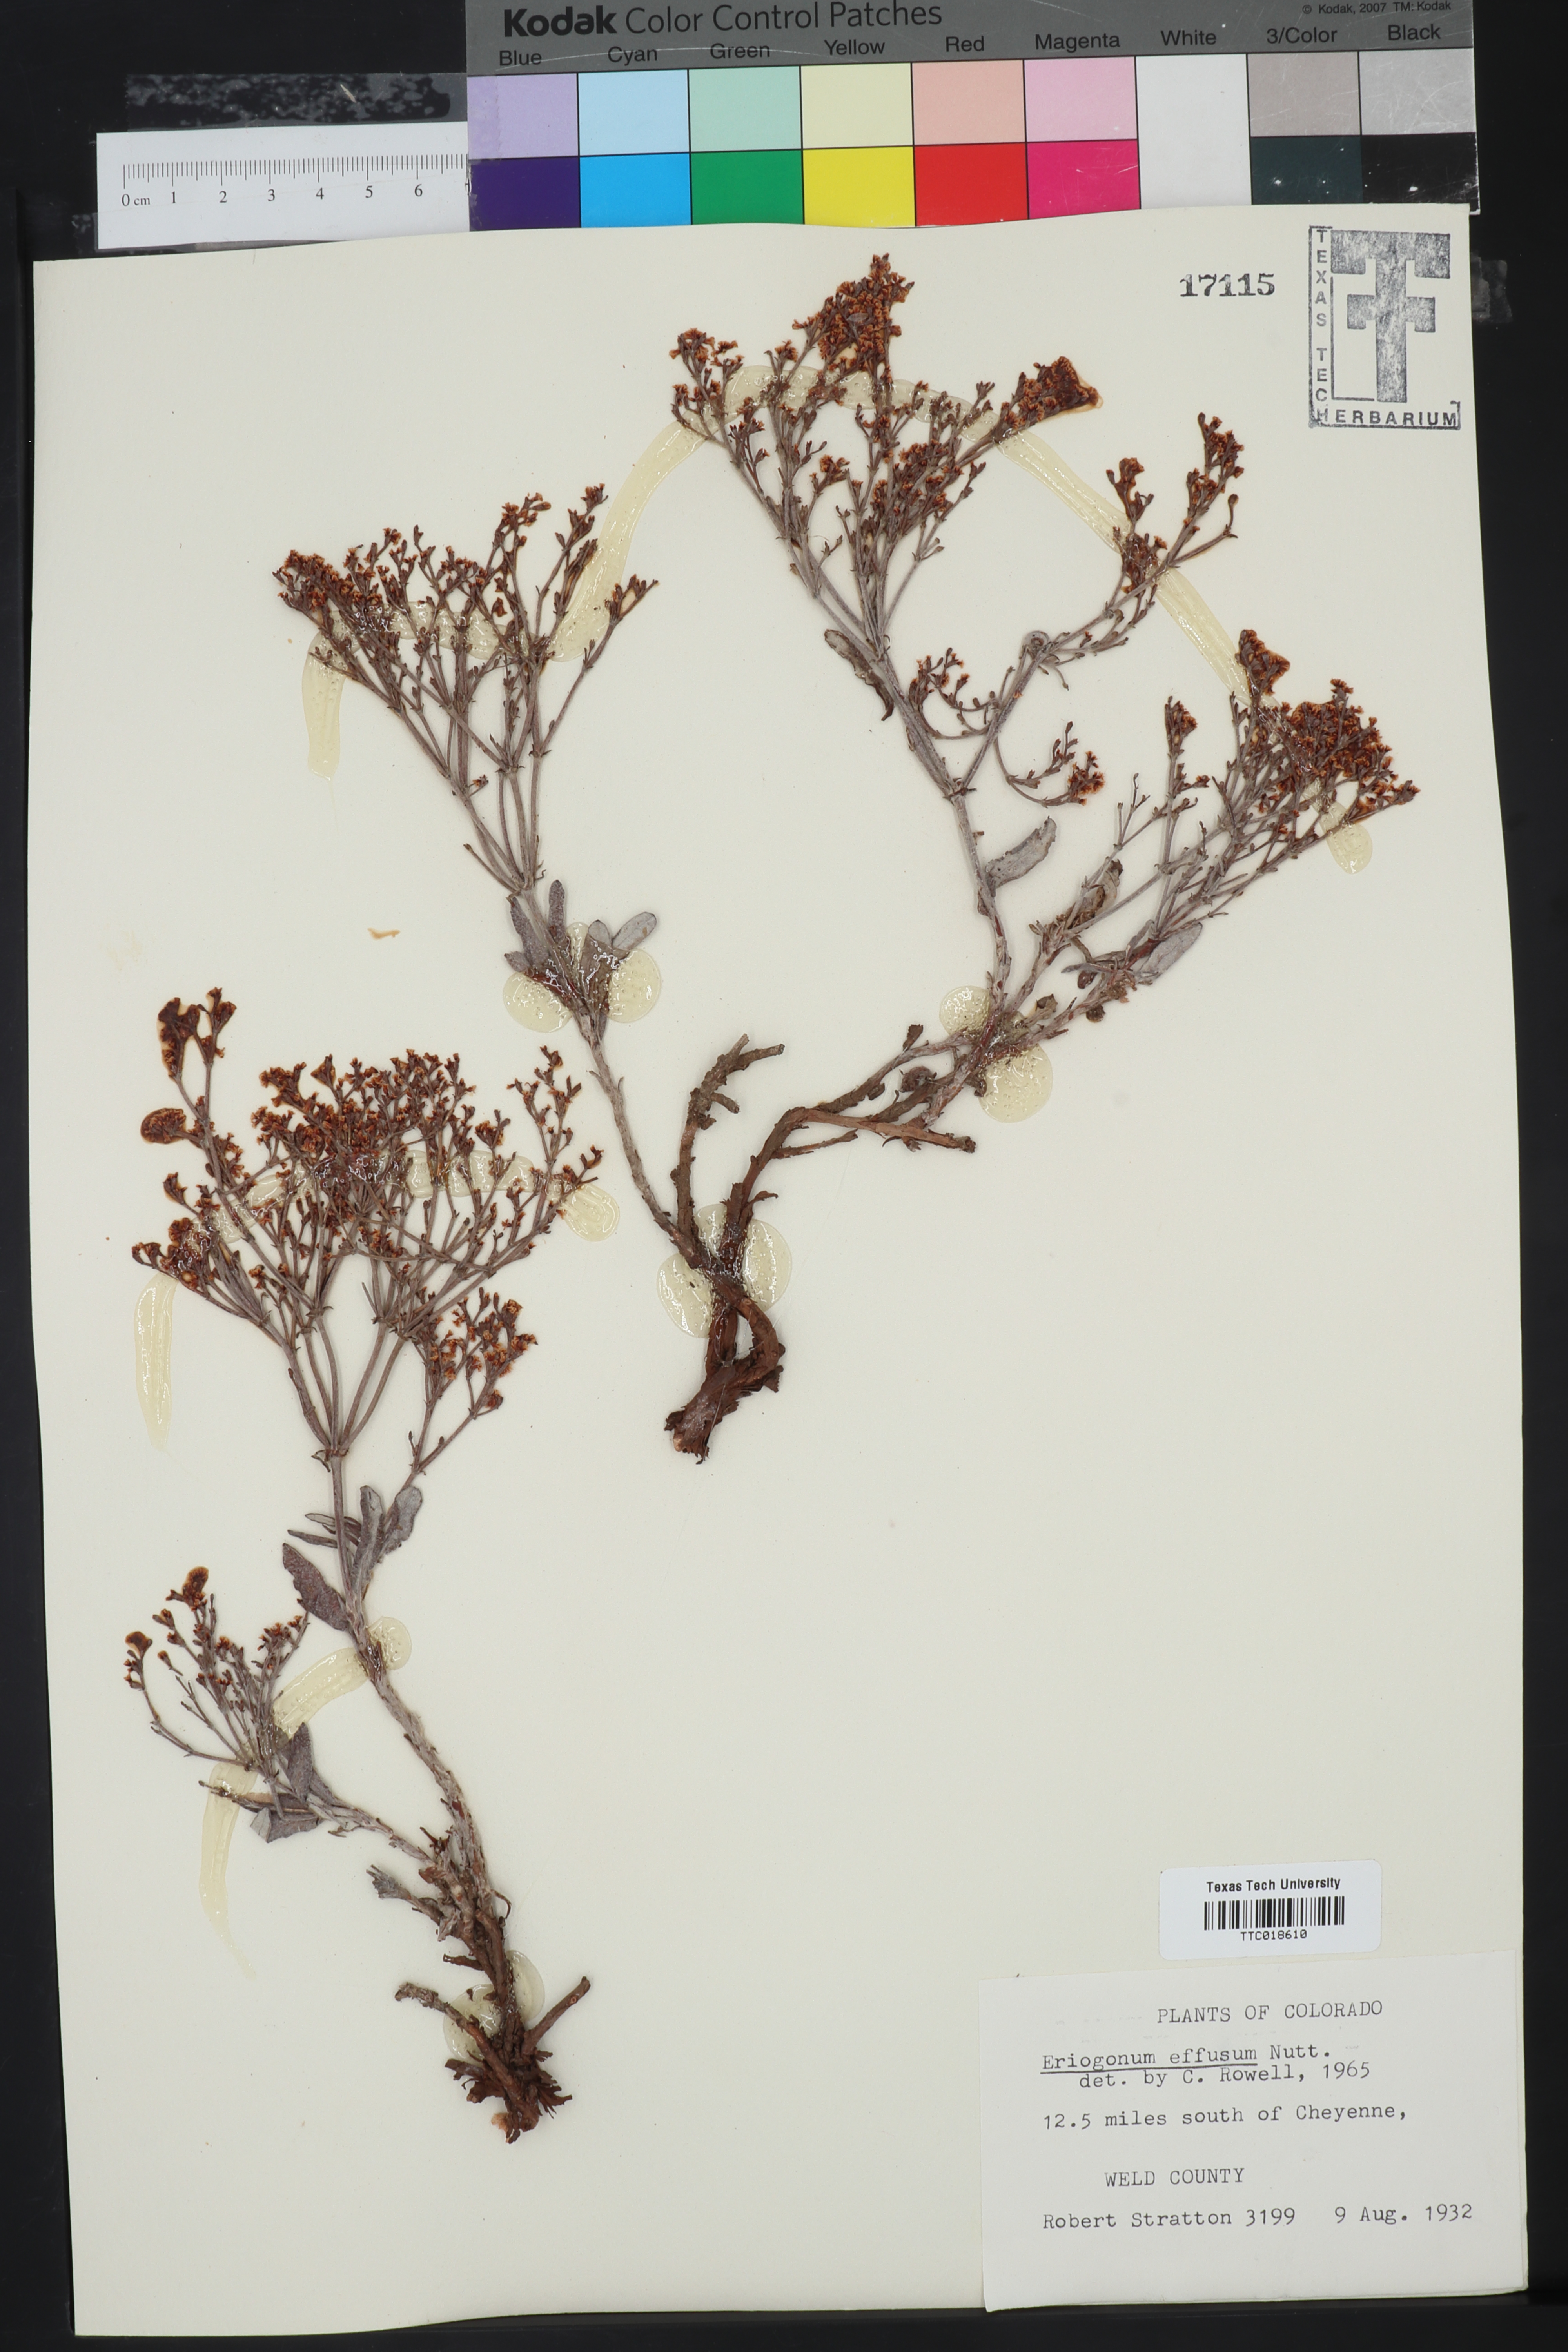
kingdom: Plantae
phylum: Tracheophyta
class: Magnoliopsida
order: Caryophyllales
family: Polygonaceae
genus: Eriogonum
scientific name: Eriogonum effusum
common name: Spreading wild buckwheat
